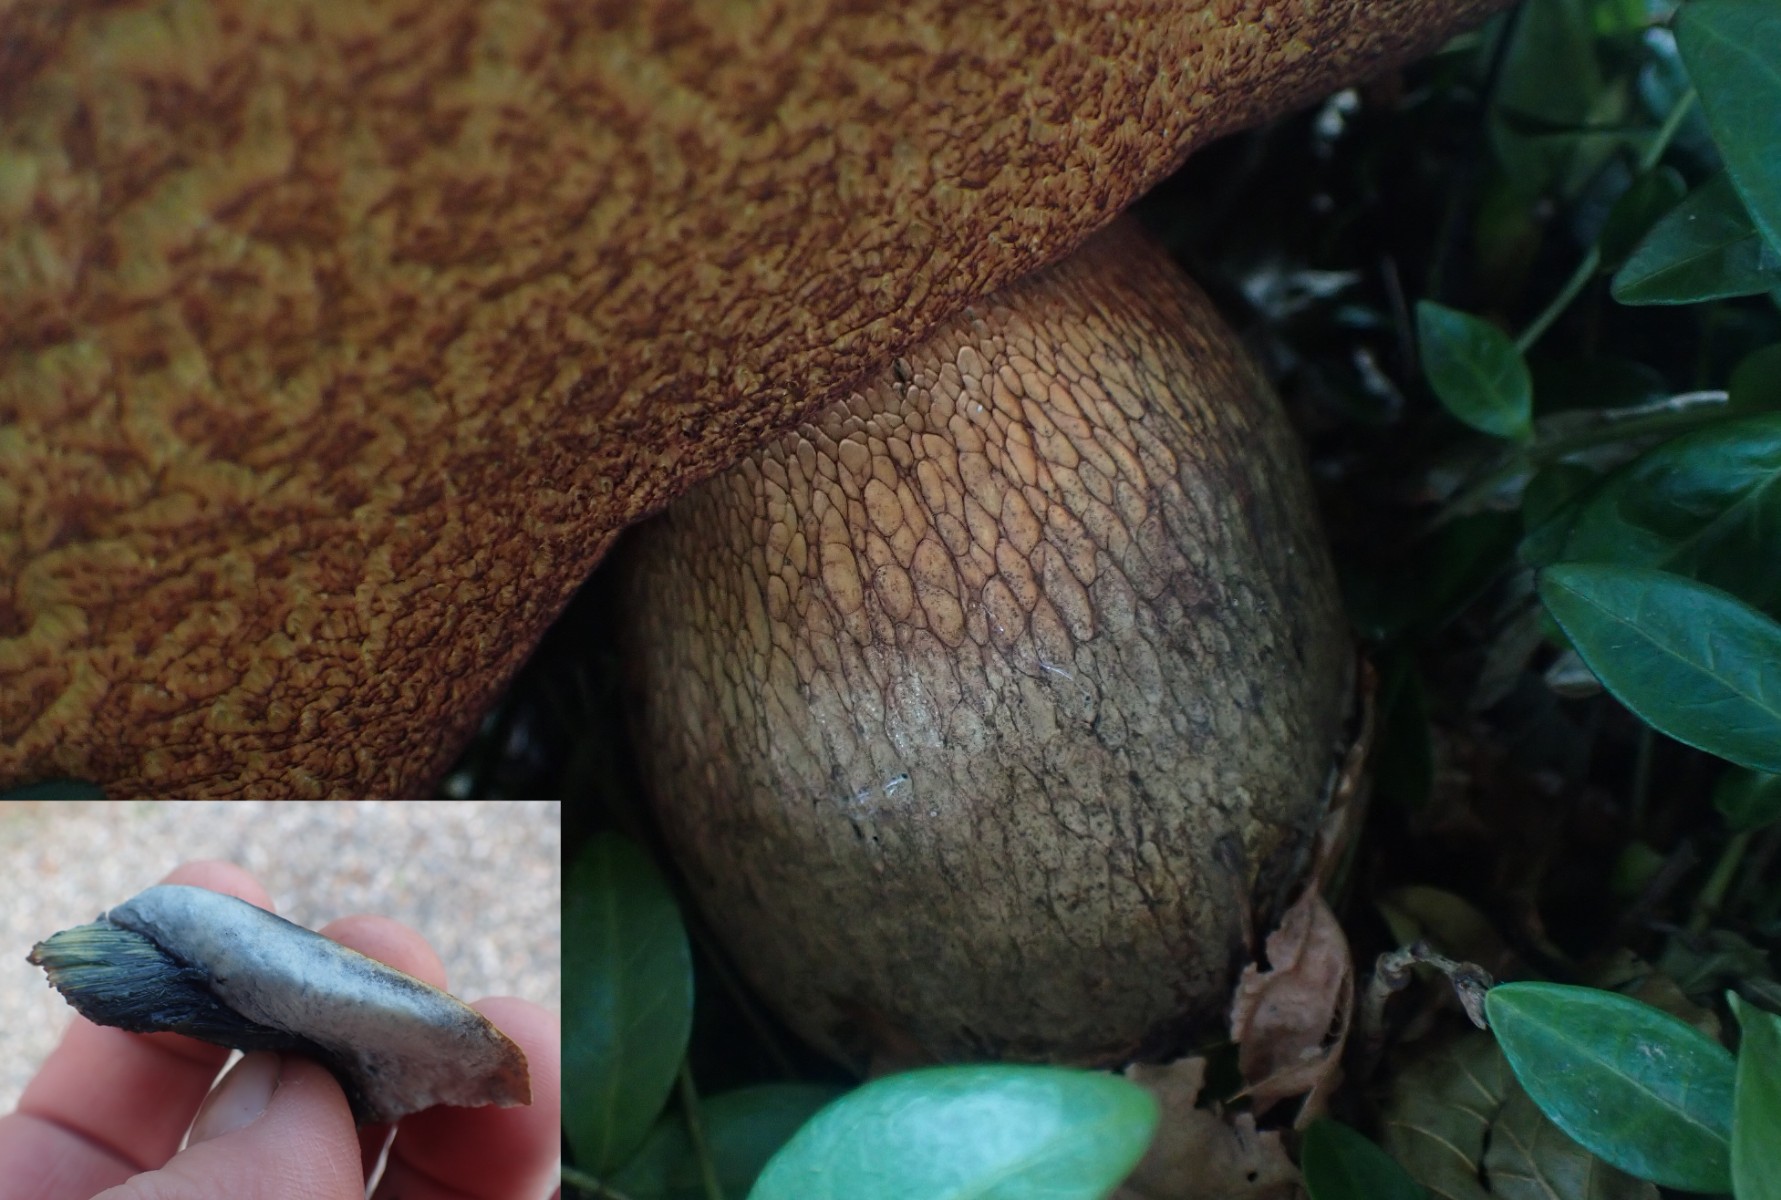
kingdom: Fungi
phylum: Basidiomycota
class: Agaricomycetes
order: Boletales
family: Boletaceae
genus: Suillellus
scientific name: Suillellus luridus
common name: netstokket indigorørhat
